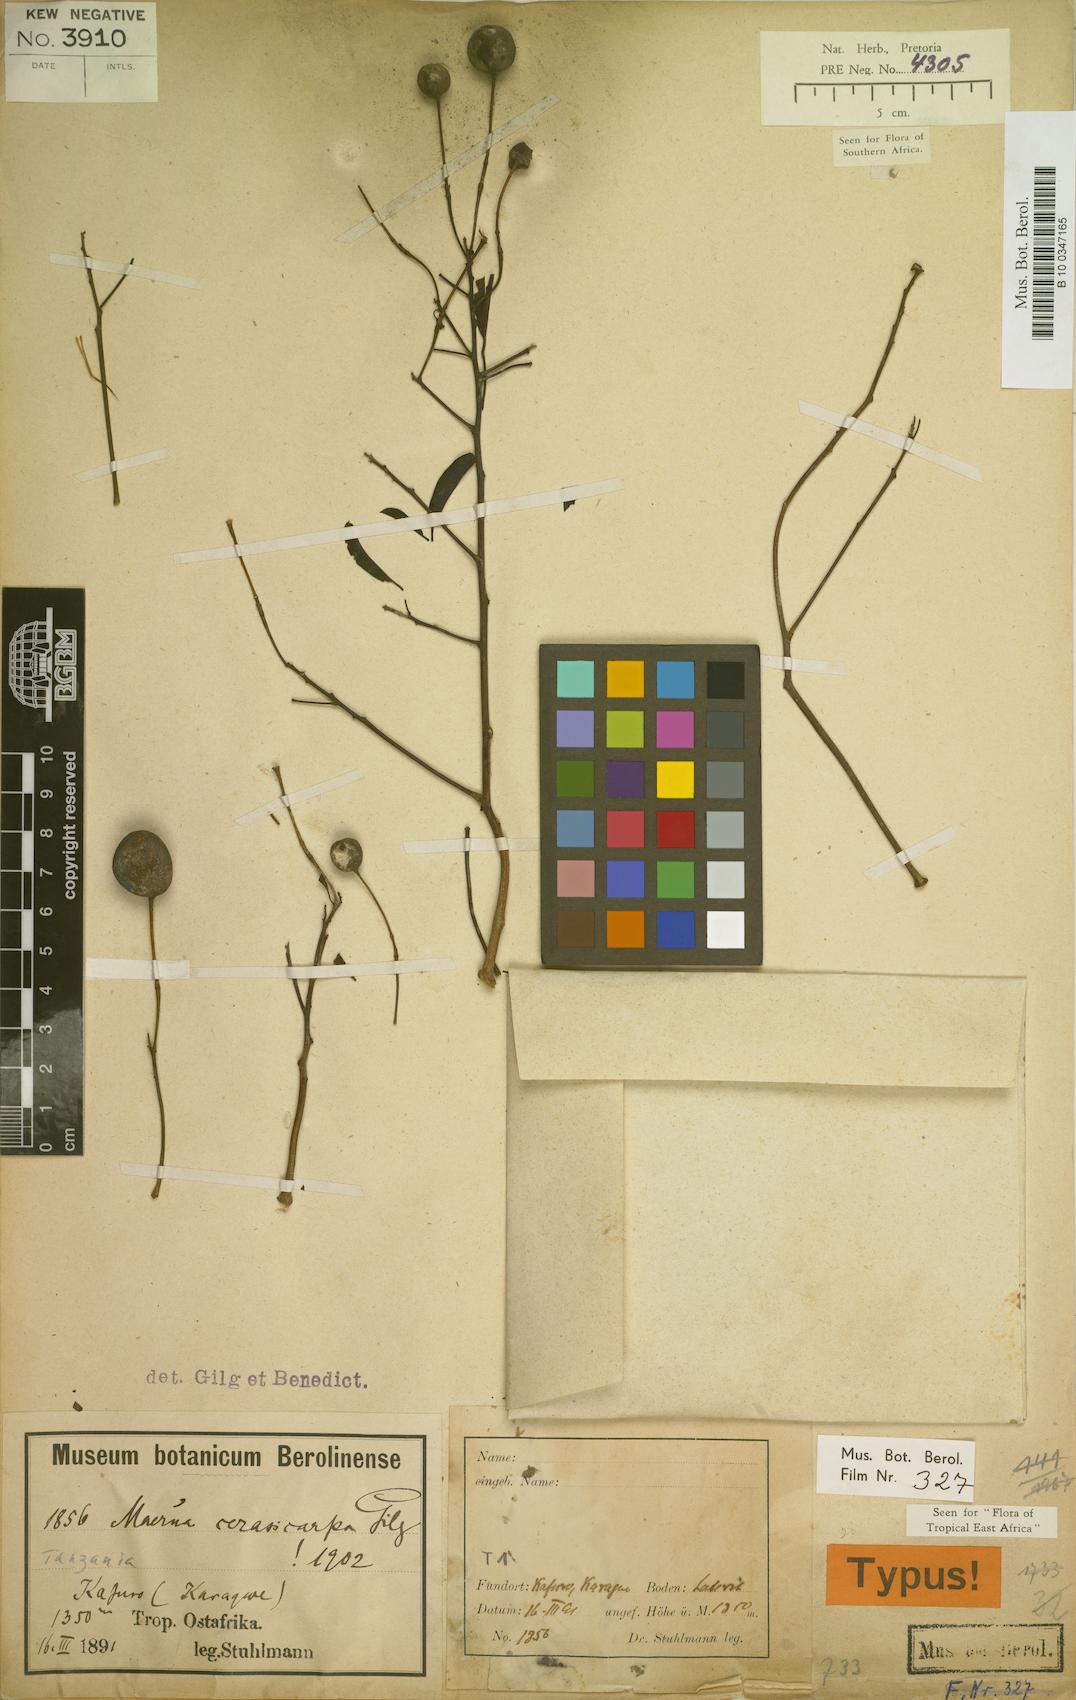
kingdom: Plantae
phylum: Tracheophyta
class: Magnoliopsida
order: Brassicales
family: Capparaceae
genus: Maerua
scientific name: Maerua aethiopica
